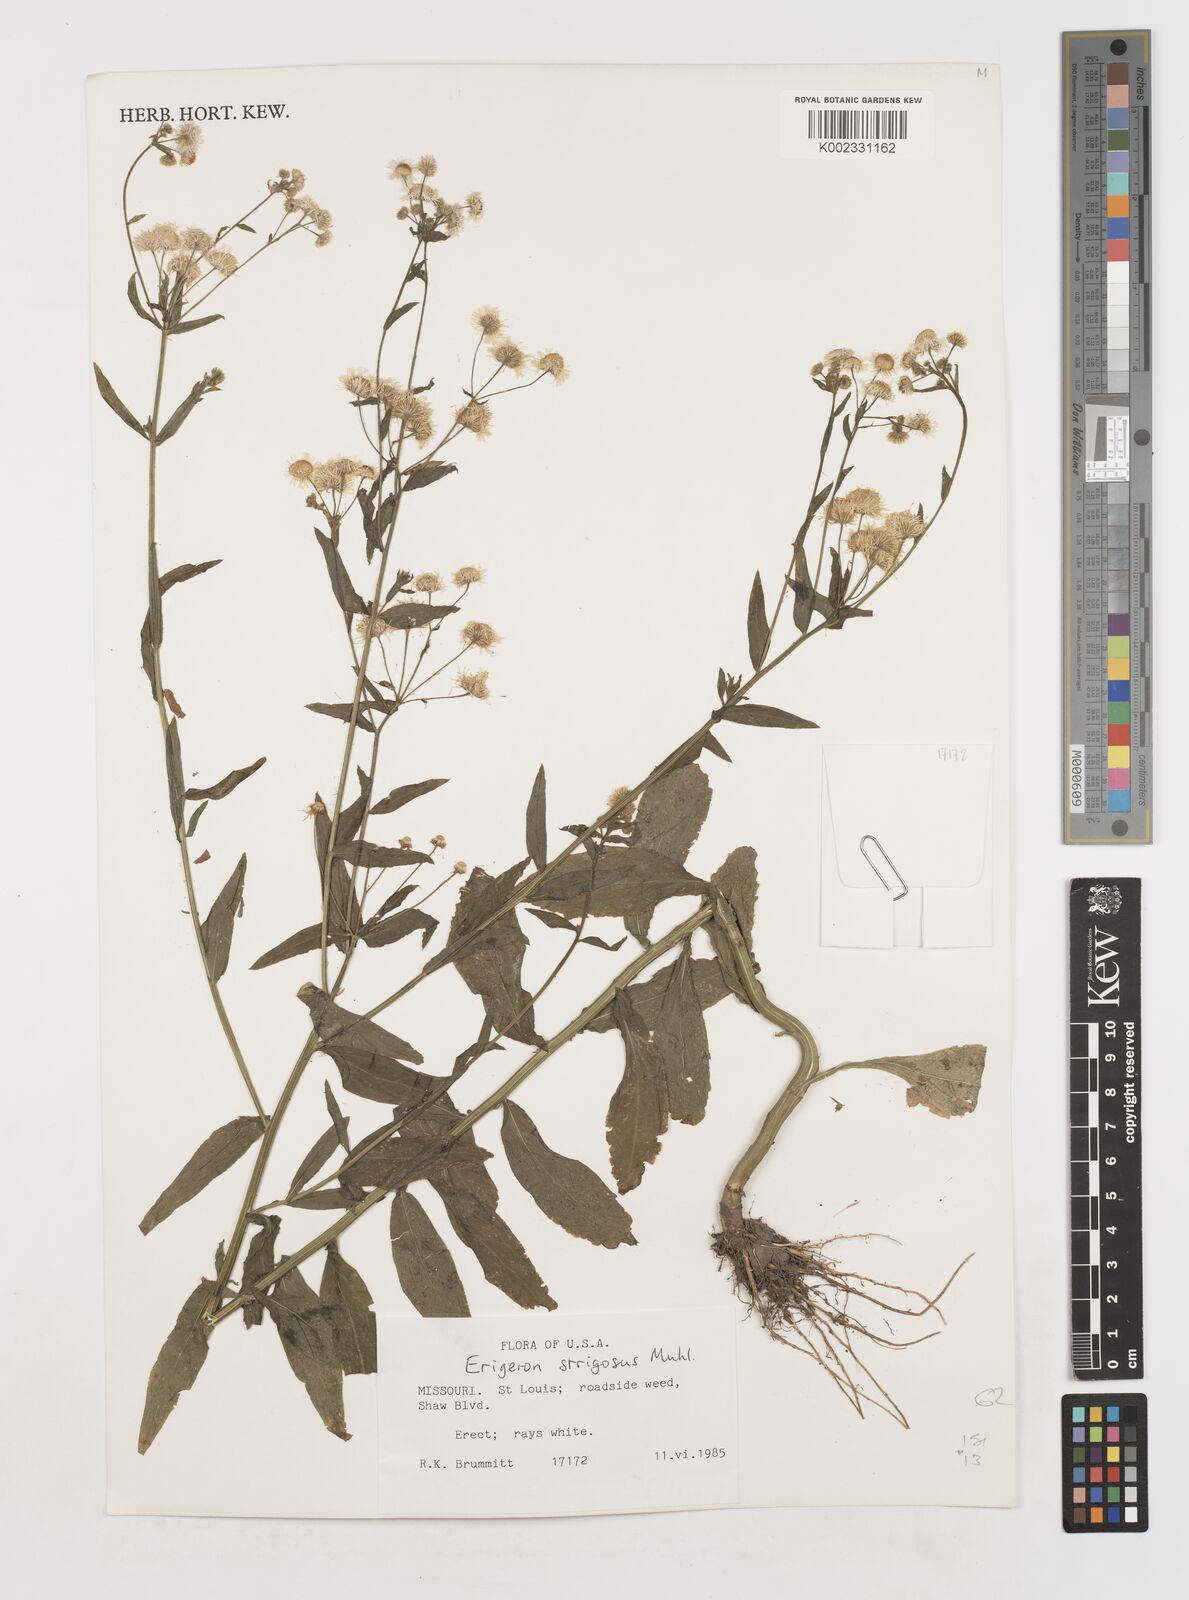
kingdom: Plantae
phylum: Tracheophyta
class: Magnoliopsida
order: Asterales
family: Asteraceae
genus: Erigeron
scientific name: Erigeron strigosus
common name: Common eastern fleabane
